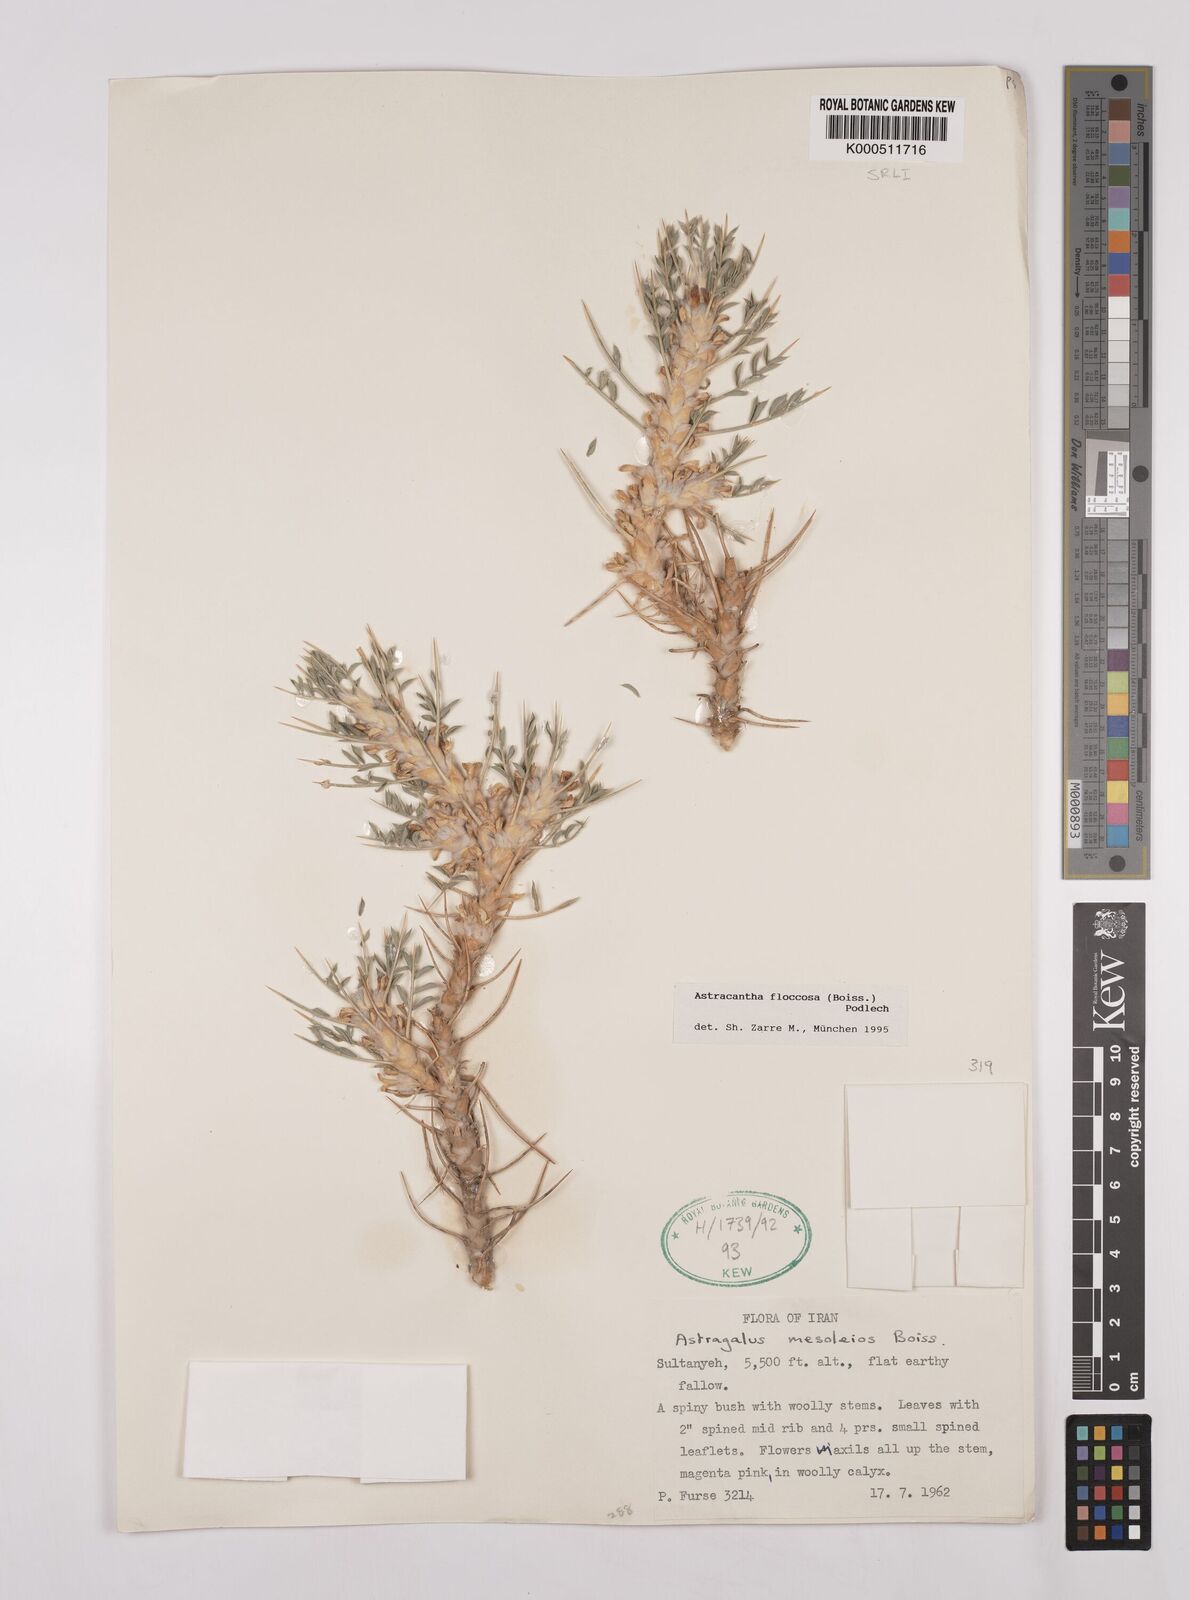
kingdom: Plantae
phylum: Tracheophyta
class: Magnoliopsida
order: Fabales
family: Fabaceae
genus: Astragalus
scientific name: Astragalus floccosus
